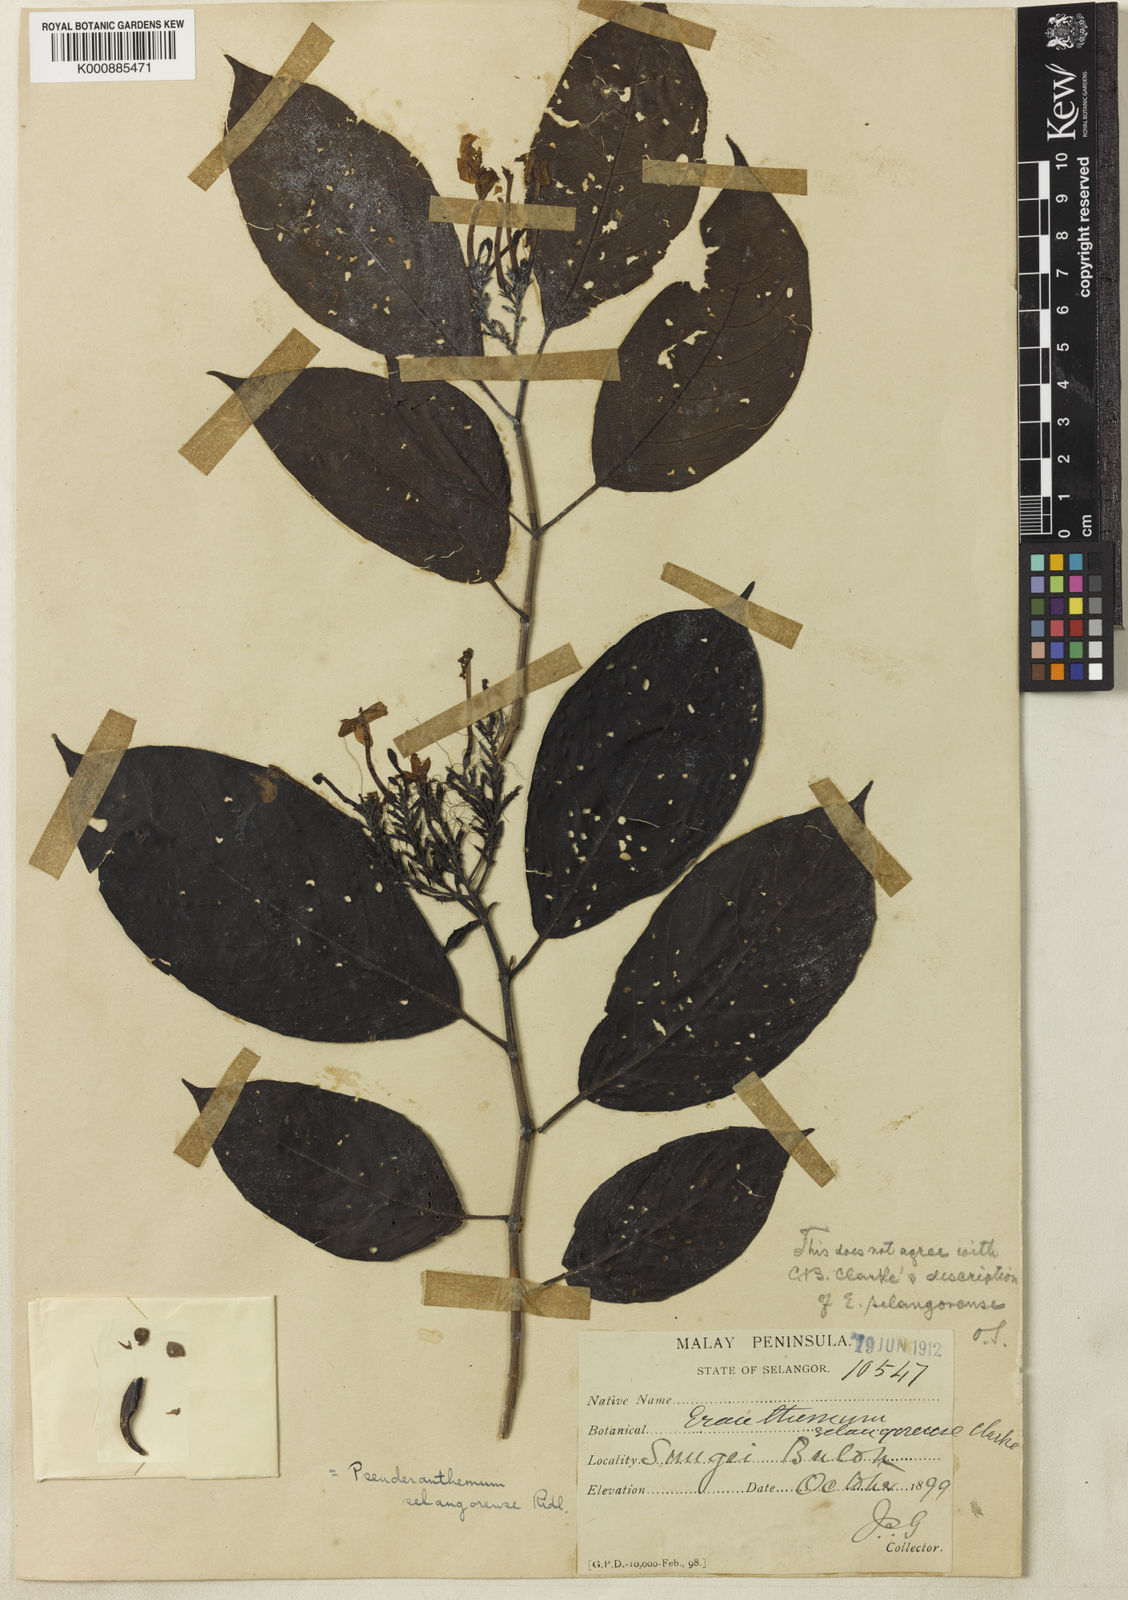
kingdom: Plantae
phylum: Tracheophyta
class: Magnoliopsida
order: Lamiales
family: Acanthaceae
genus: Pseuderanthemum
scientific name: Pseuderanthemum selangorense
